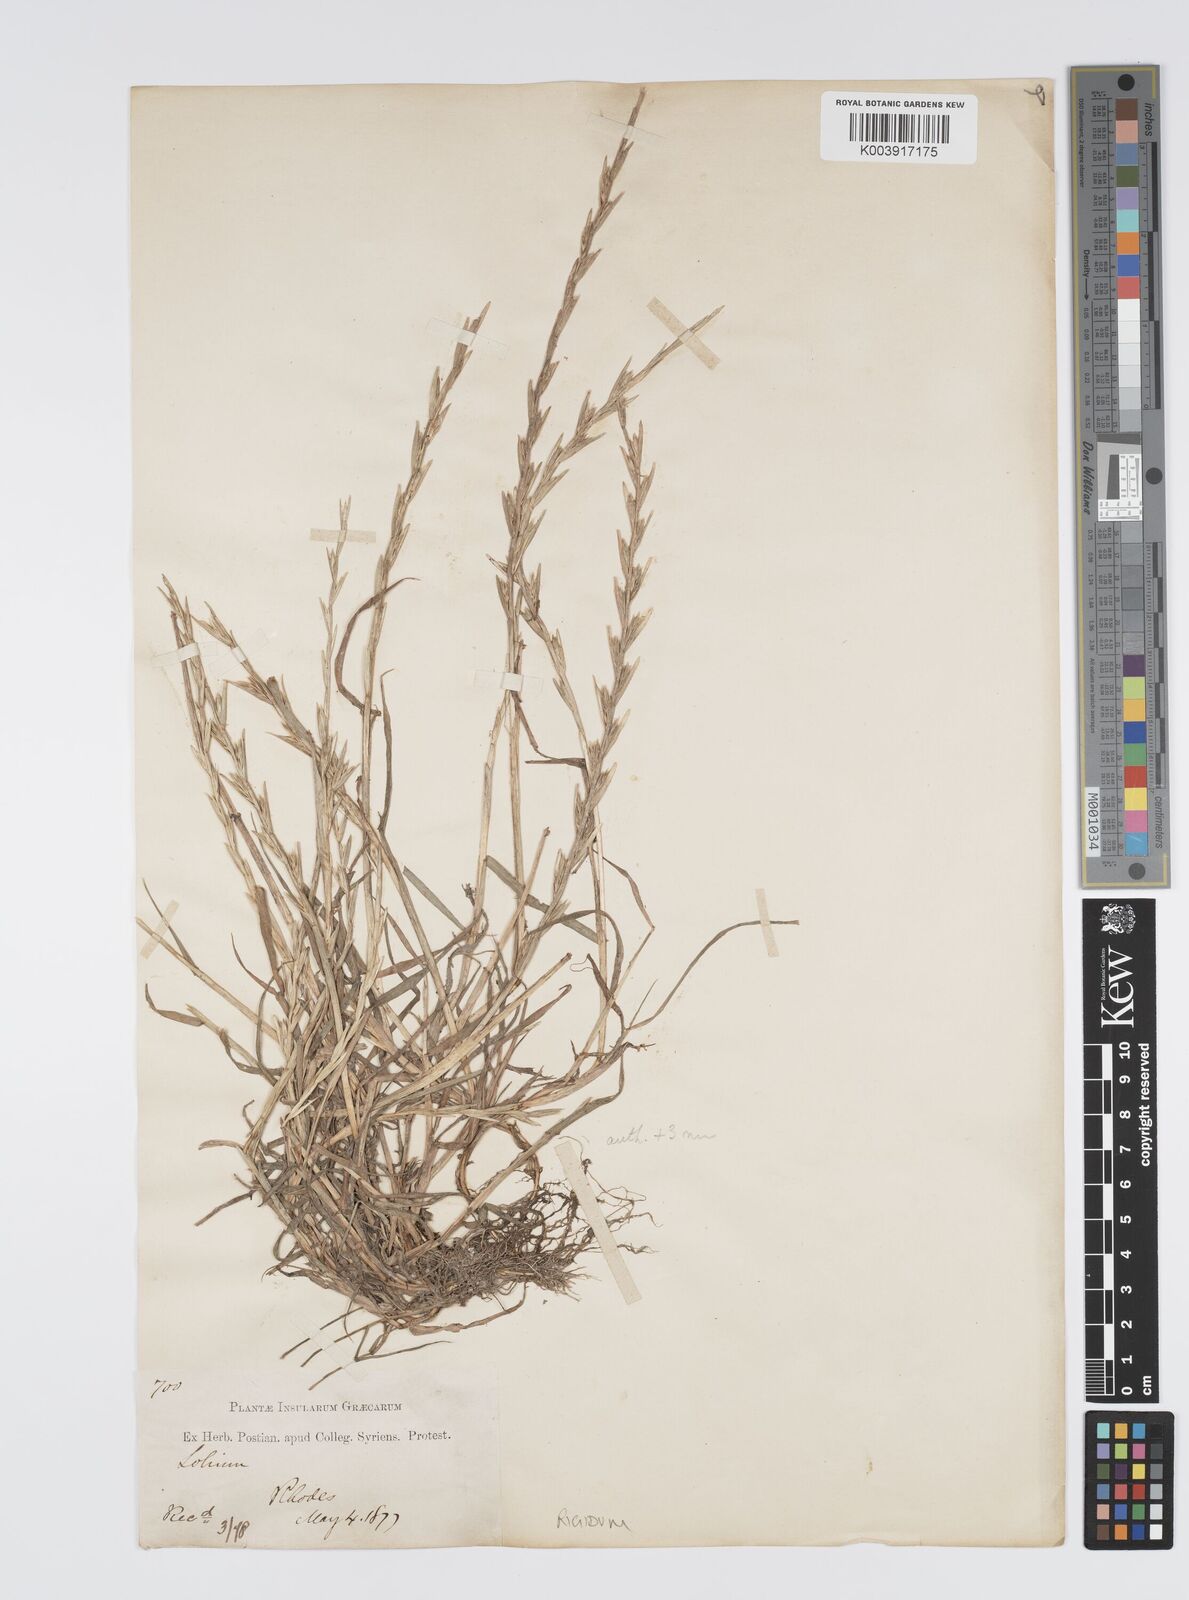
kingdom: Plantae
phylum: Tracheophyta
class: Liliopsida
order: Poales
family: Poaceae
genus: Lolium
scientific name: Lolium rigidum
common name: Wimmera ryegrass
